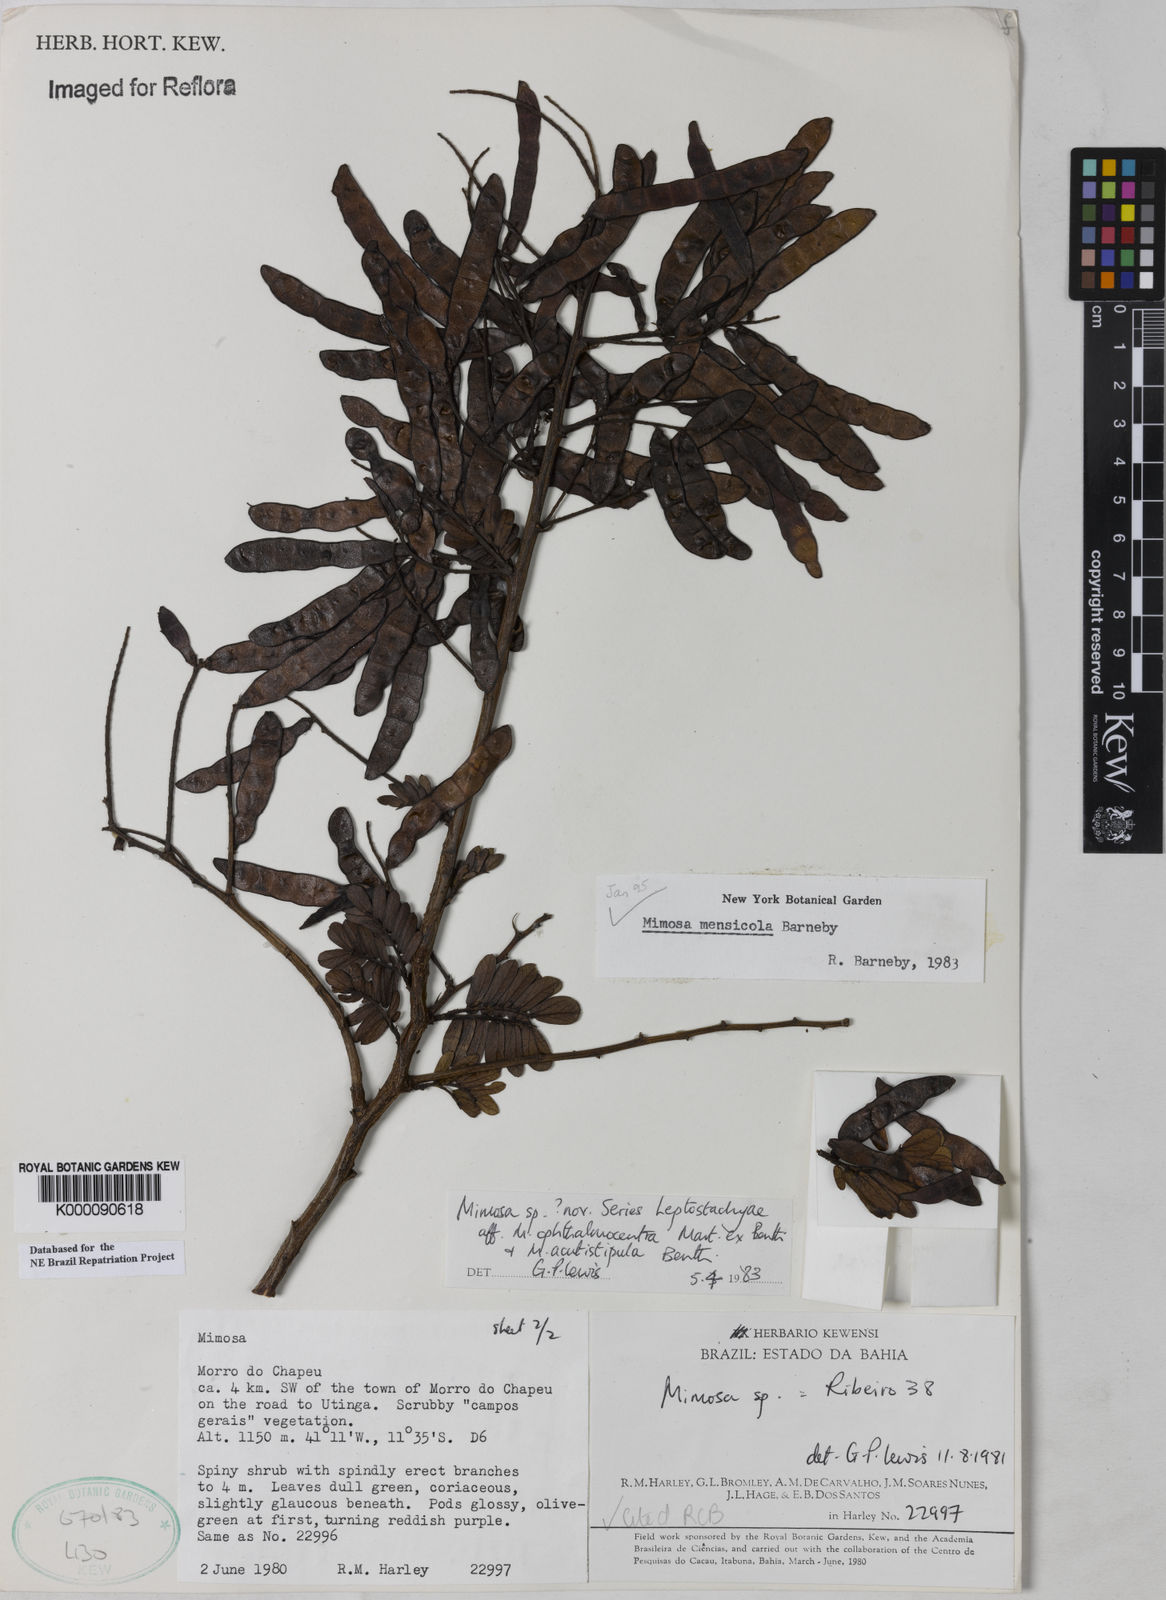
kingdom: Plantae
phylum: Tracheophyta
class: Magnoliopsida
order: Fabales
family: Fabaceae
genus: Mimosa
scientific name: Mimosa mensicola
